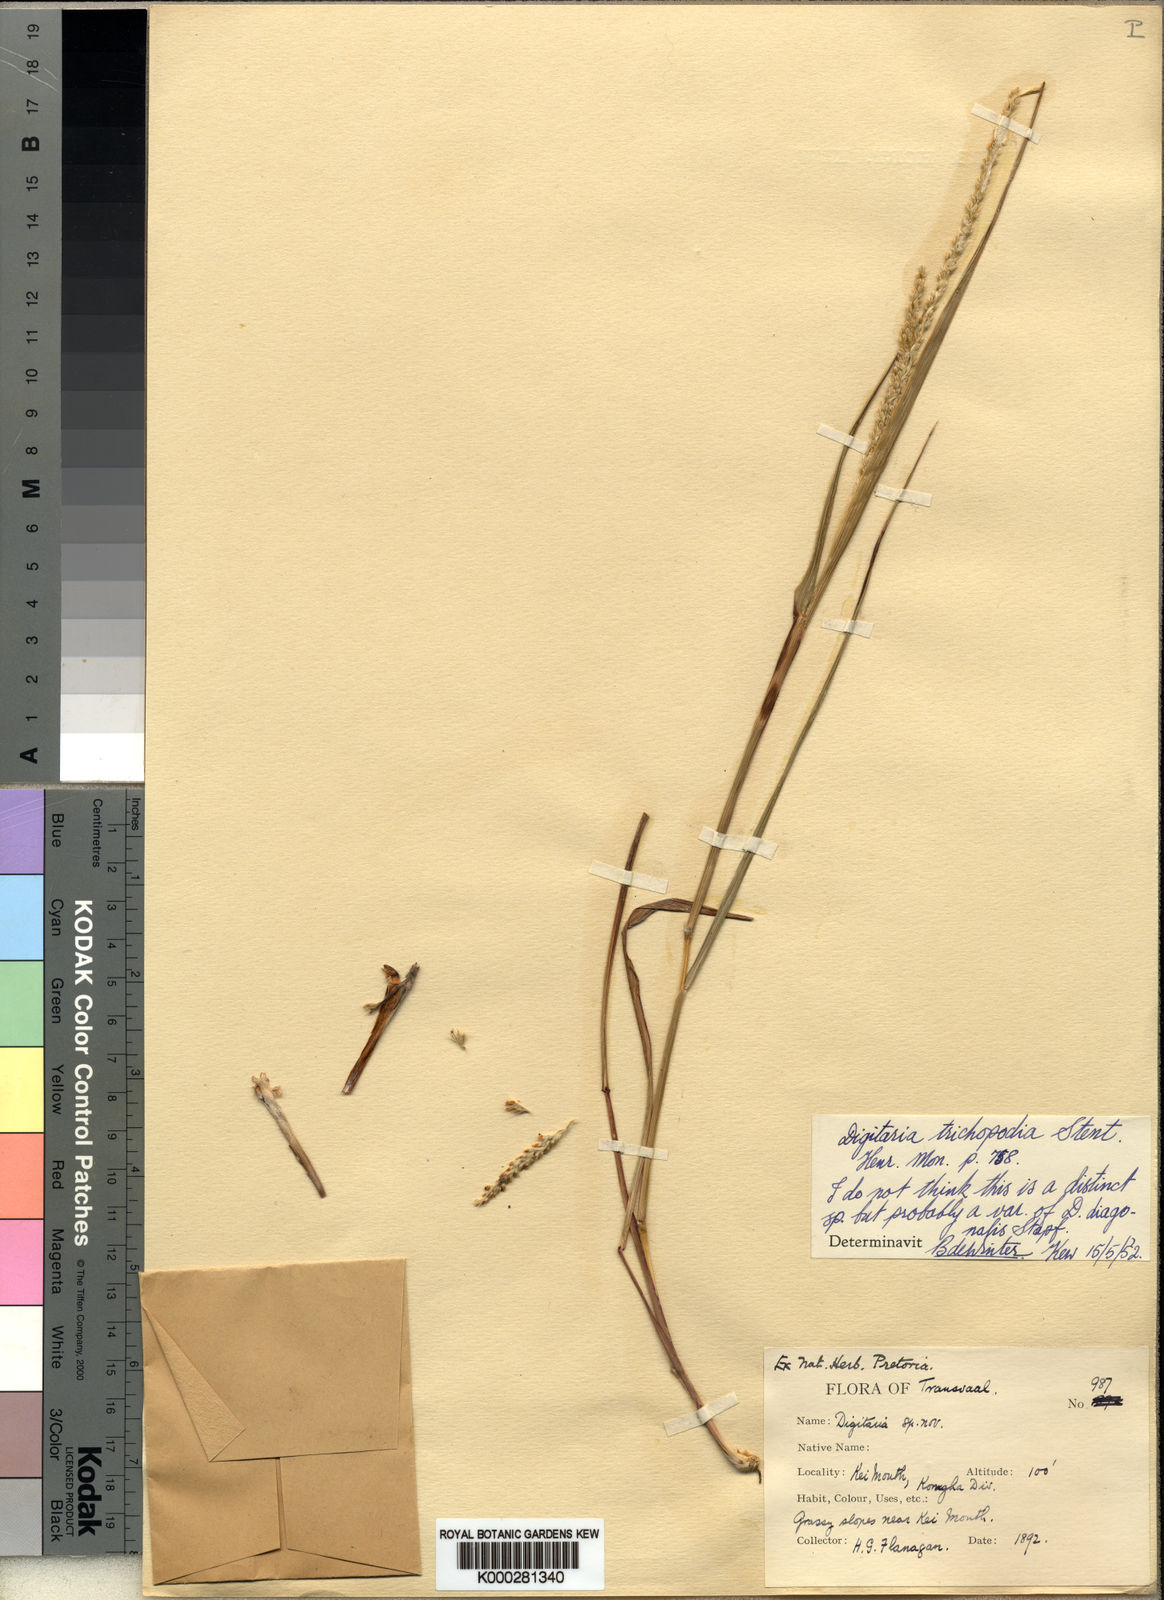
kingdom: Plantae
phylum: Tracheophyta
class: Liliopsida
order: Poales
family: Poaceae
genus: Digitaria
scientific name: Digitaria diagonalis
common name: Brown-seed finger grass
